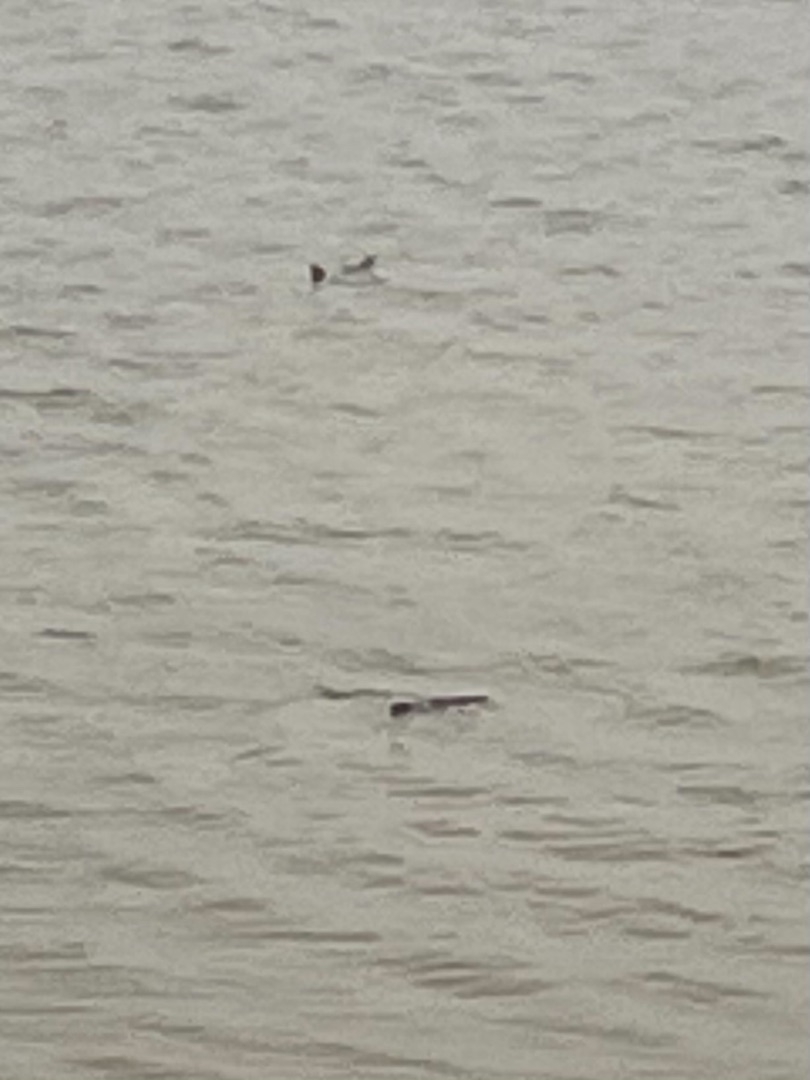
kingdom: Animalia
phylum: Chordata
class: Mammalia
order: Carnivora
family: Mustelidae
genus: Lutra
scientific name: Lutra lutra
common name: Odder
